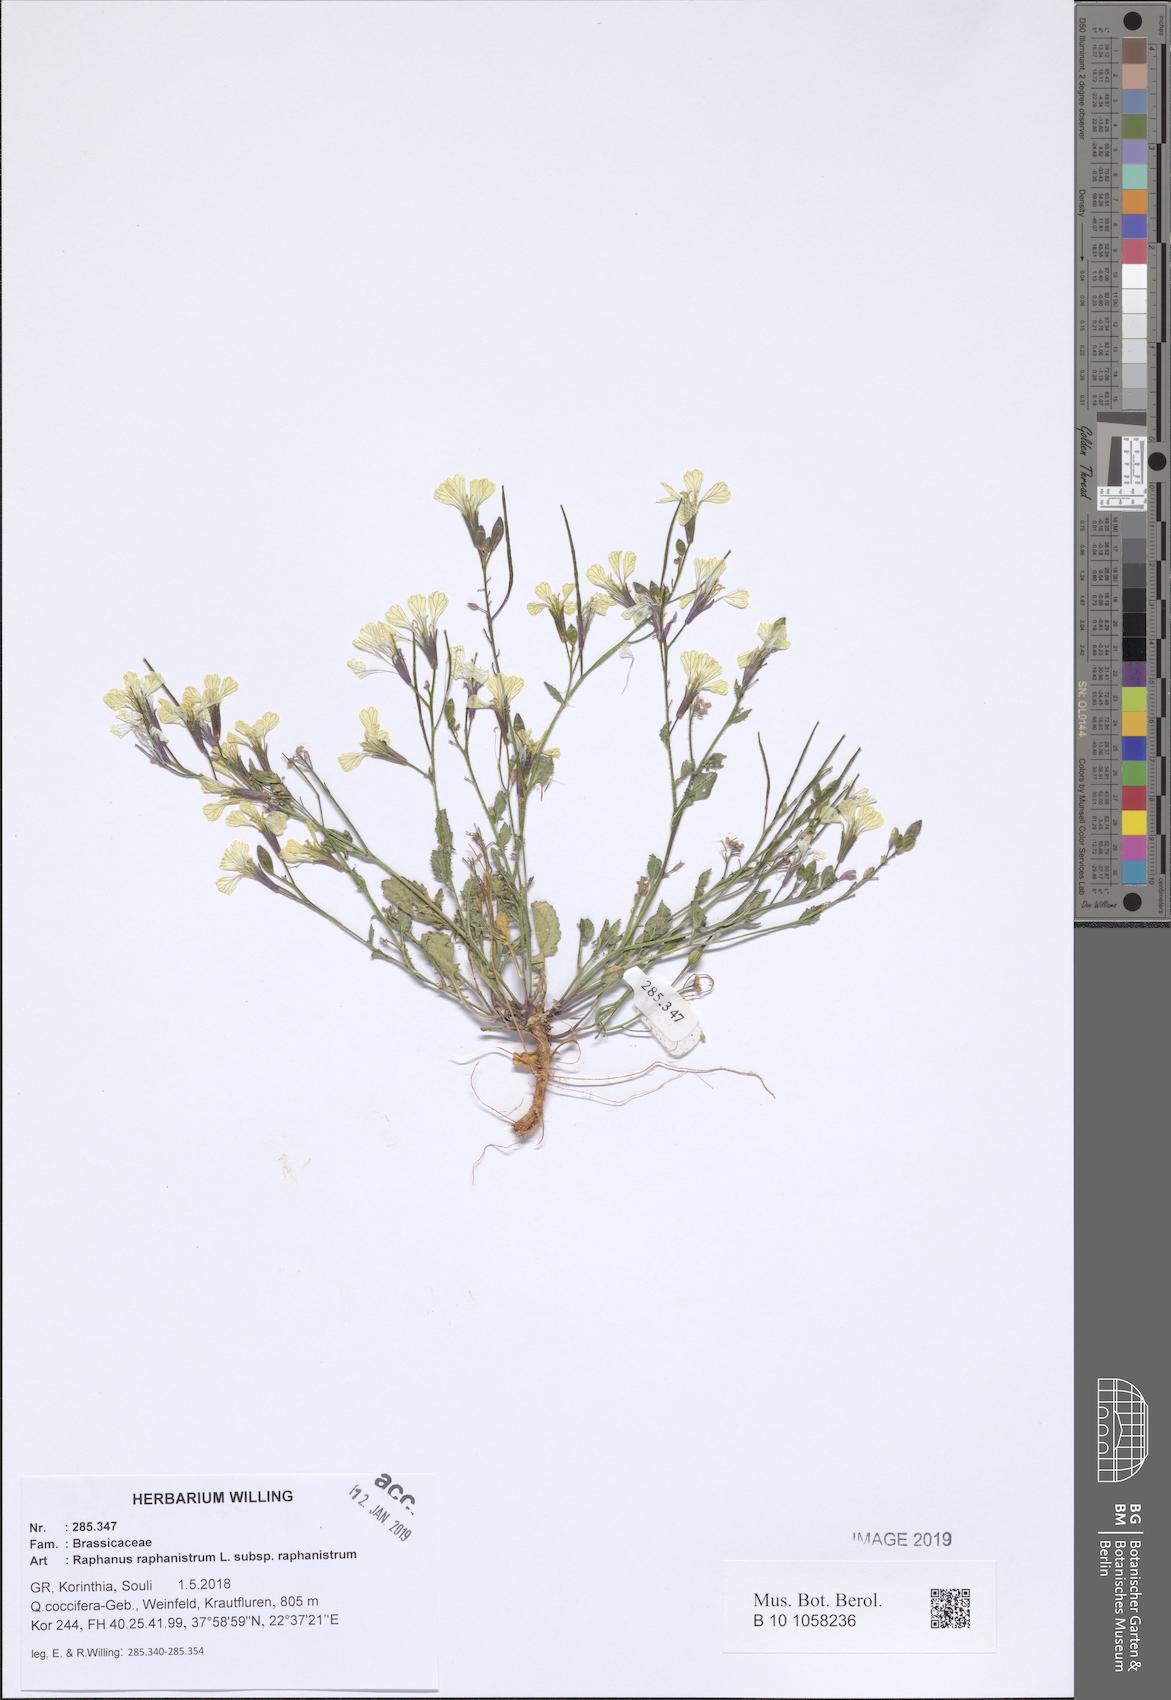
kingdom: Plantae
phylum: Tracheophyta
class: Magnoliopsida
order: Brassicales
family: Brassicaceae
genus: Raphanus
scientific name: Raphanus raphanistrum
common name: Wild radish
